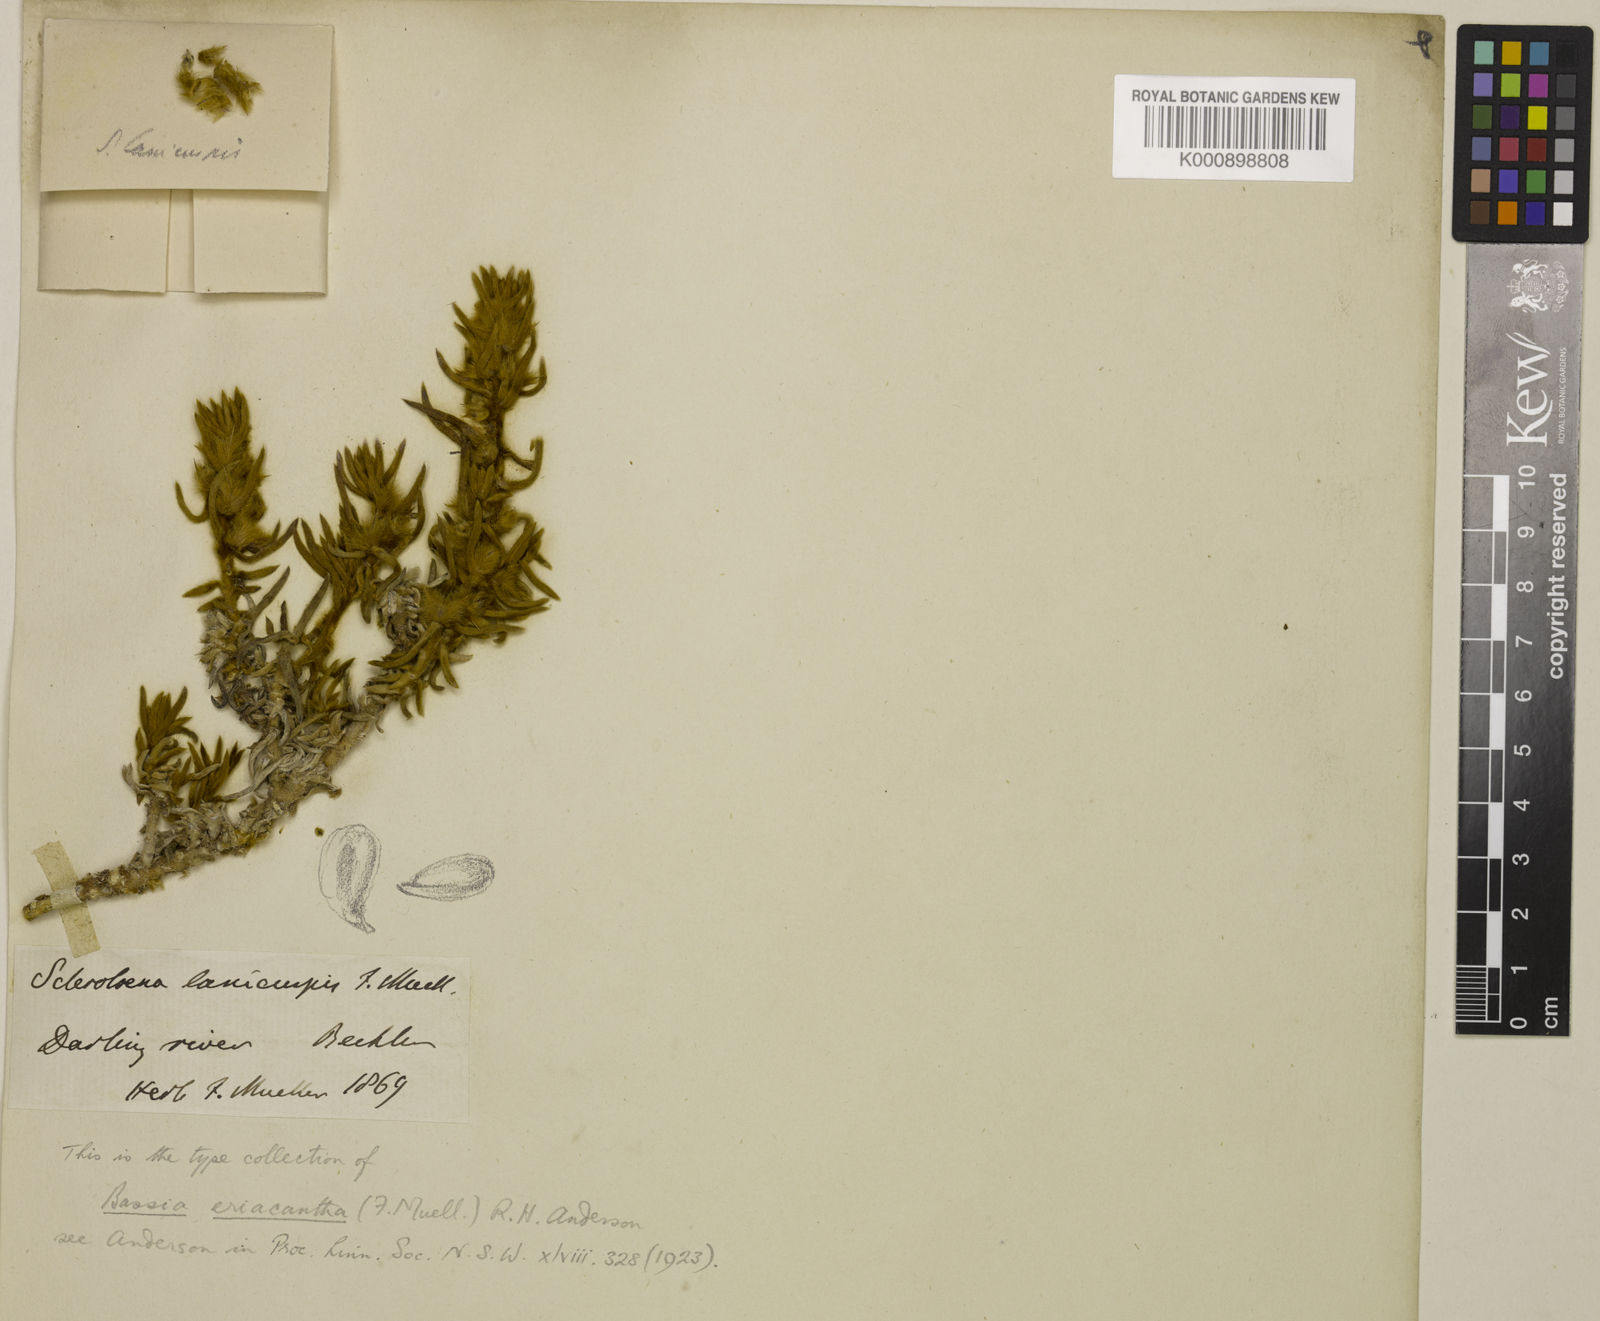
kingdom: Plantae
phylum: Tracheophyta
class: Magnoliopsida
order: Caryophyllales
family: Amaranthaceae
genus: Sclerolaena
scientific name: Sclerolaena eriacantha
